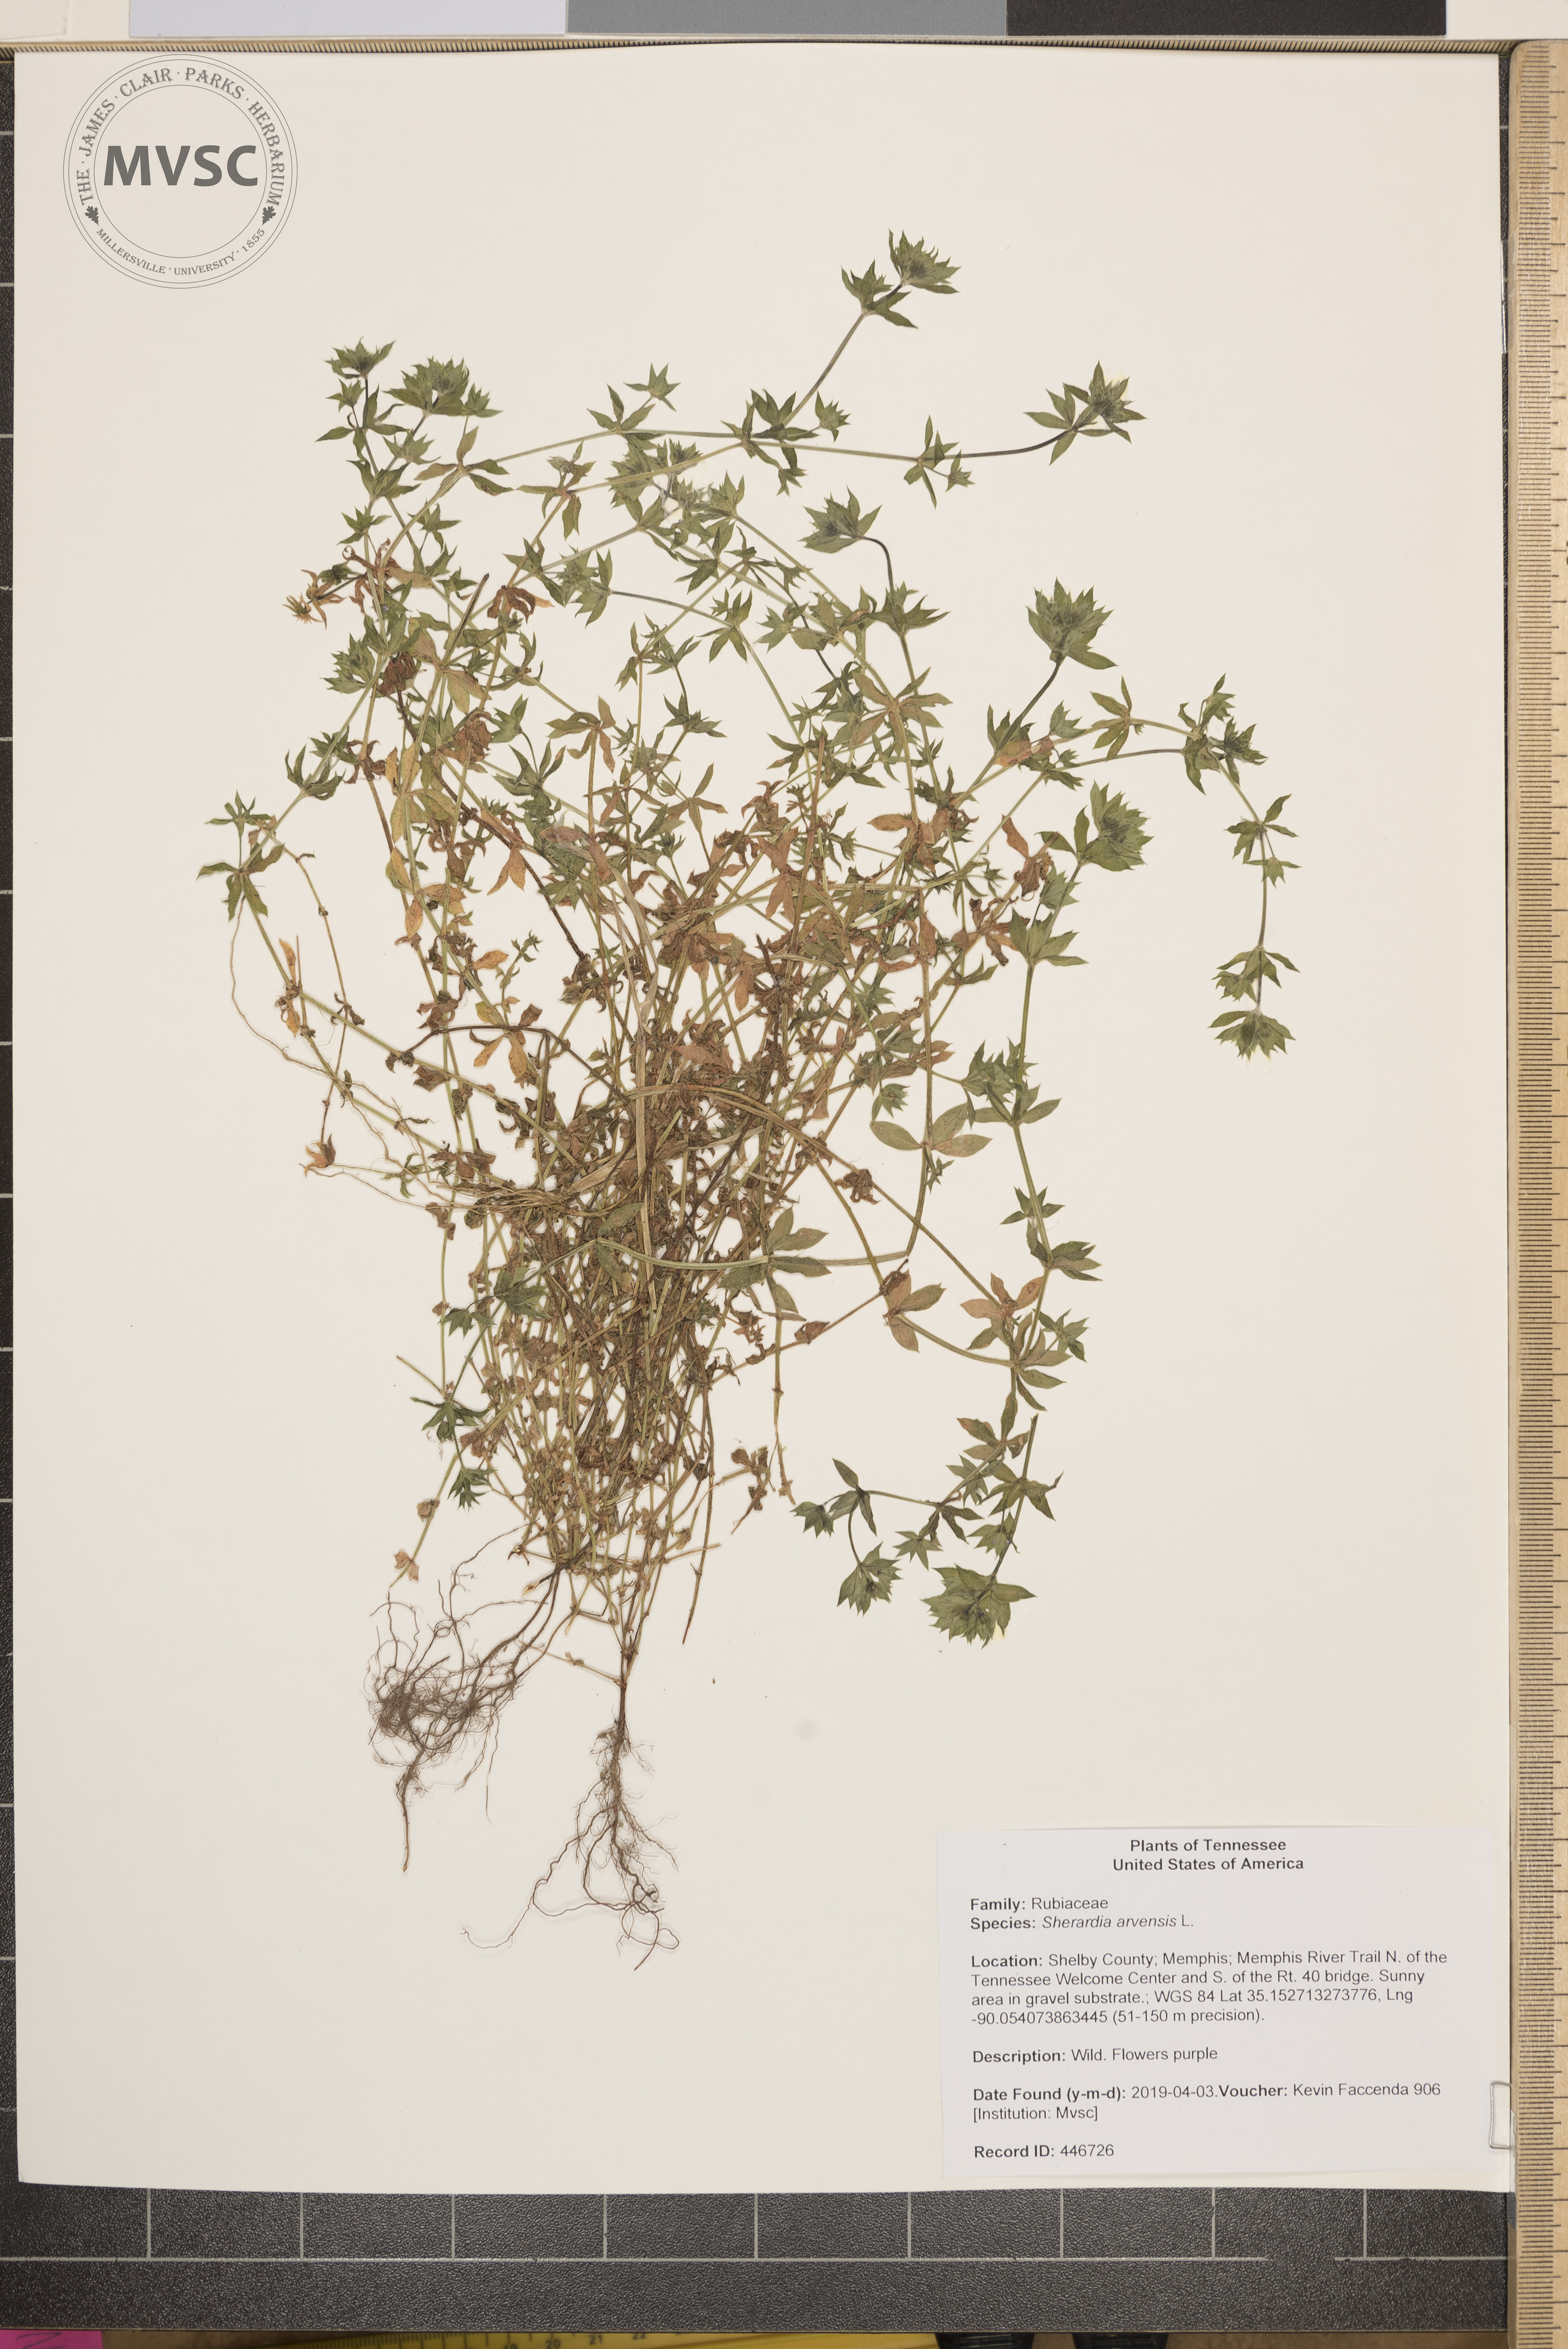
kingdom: Plantae
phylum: Tracheophyta
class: Magnoliopsida
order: Gentianales
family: Rubiaceae
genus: Sherardia
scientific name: Sherardia arvensis
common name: Field madder
